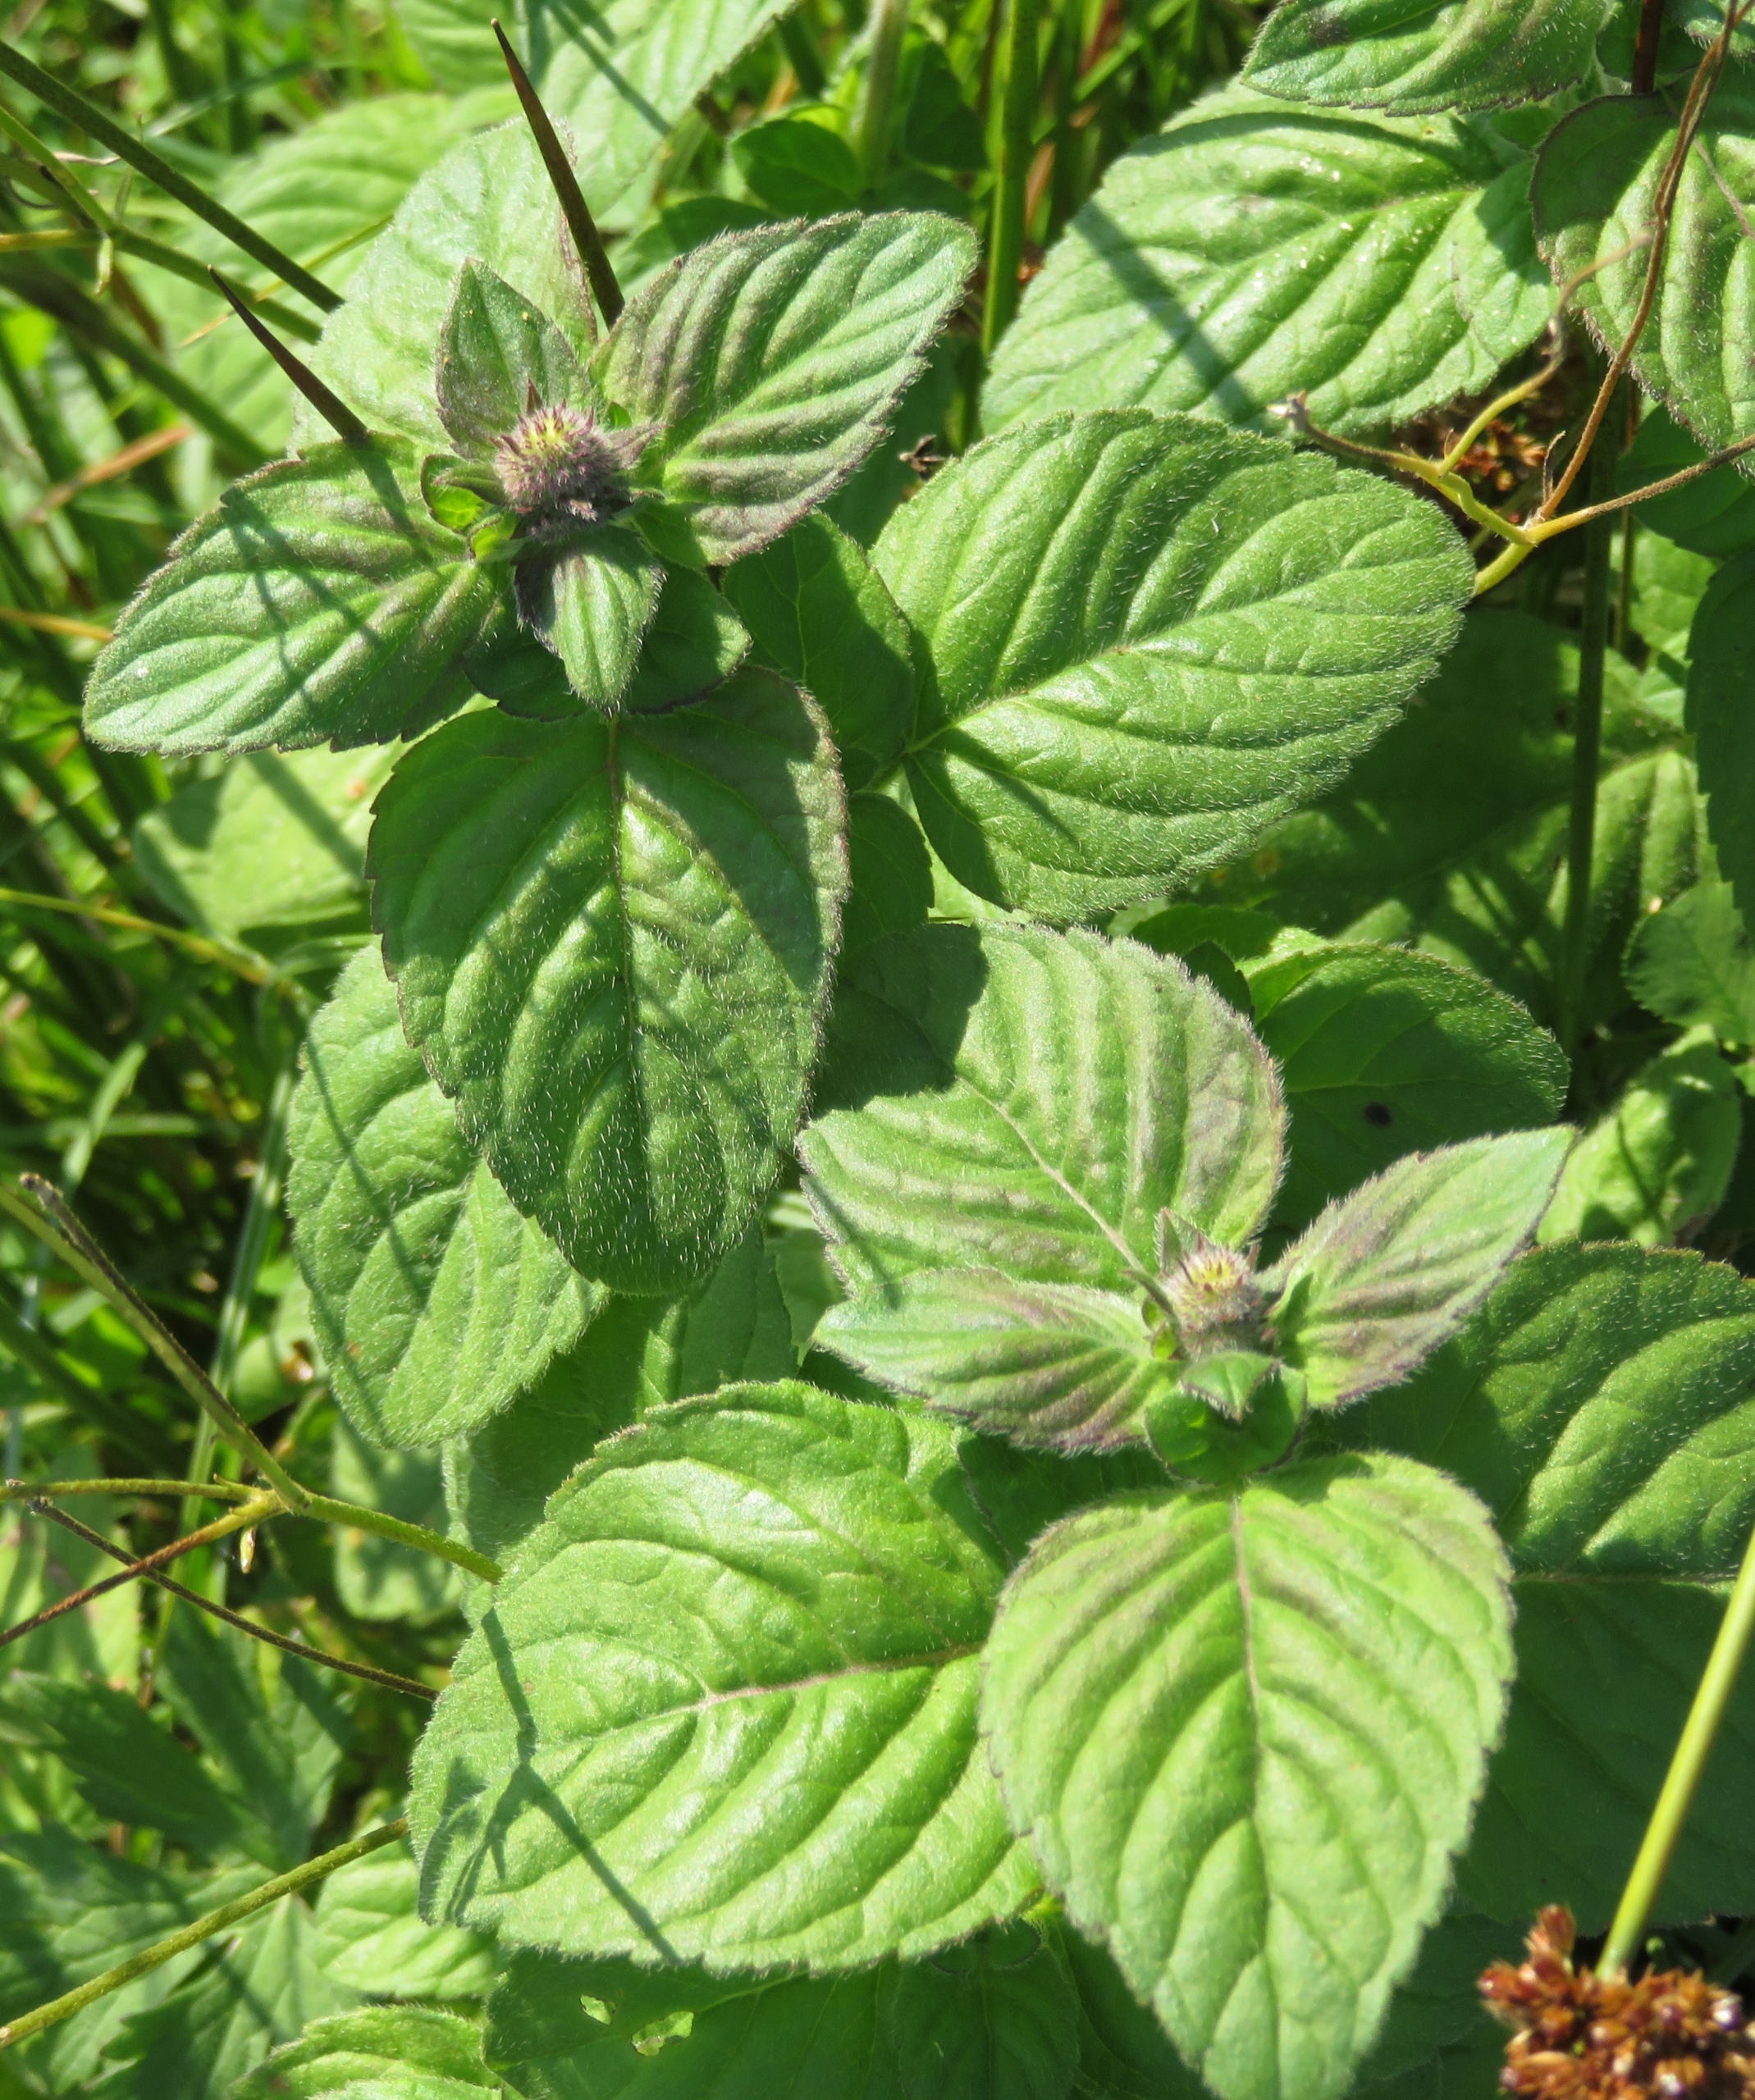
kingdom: Plantae
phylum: Tracheophyta
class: Magnoliopsida
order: Lamiales
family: Lamiaceae
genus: Mentha
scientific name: Mentha aquatica
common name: Vand-mynte
